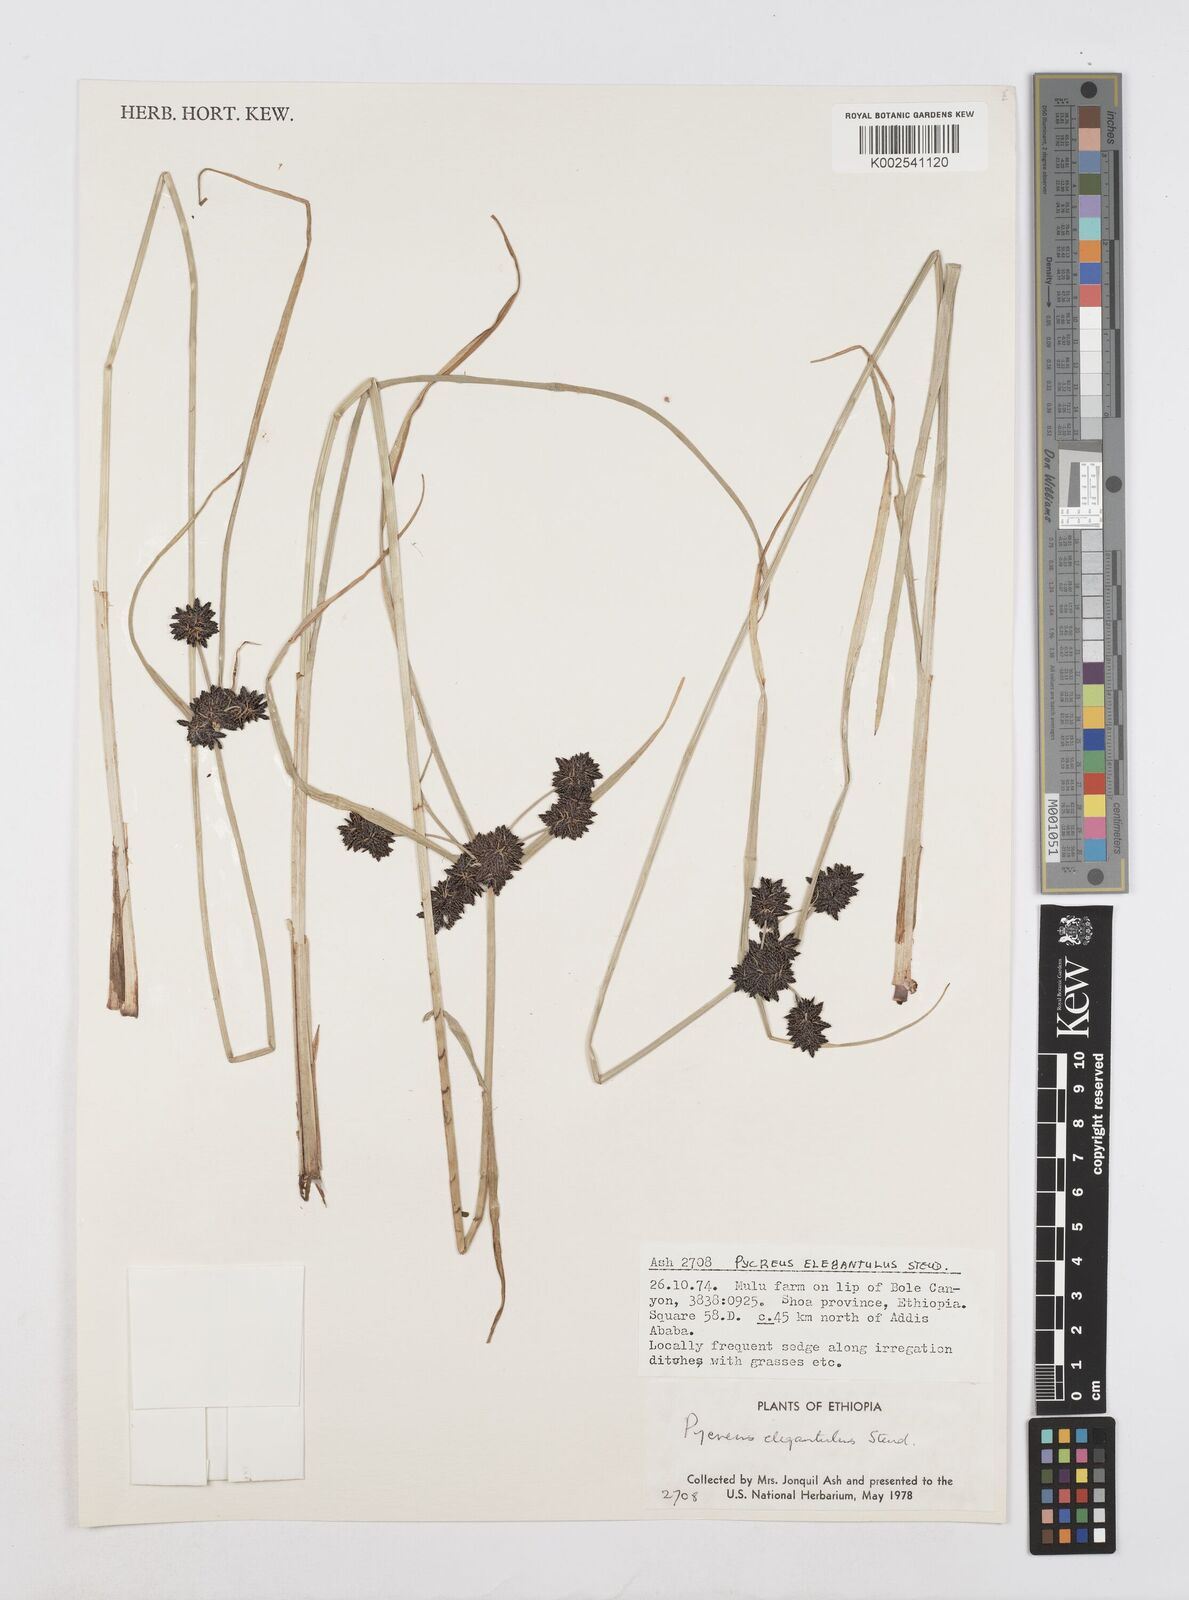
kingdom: Plantae
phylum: Tracheophyta
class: Liliopsida
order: Poales
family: Cyperaceae
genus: Cyperus
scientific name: Cyperus elegantulus
